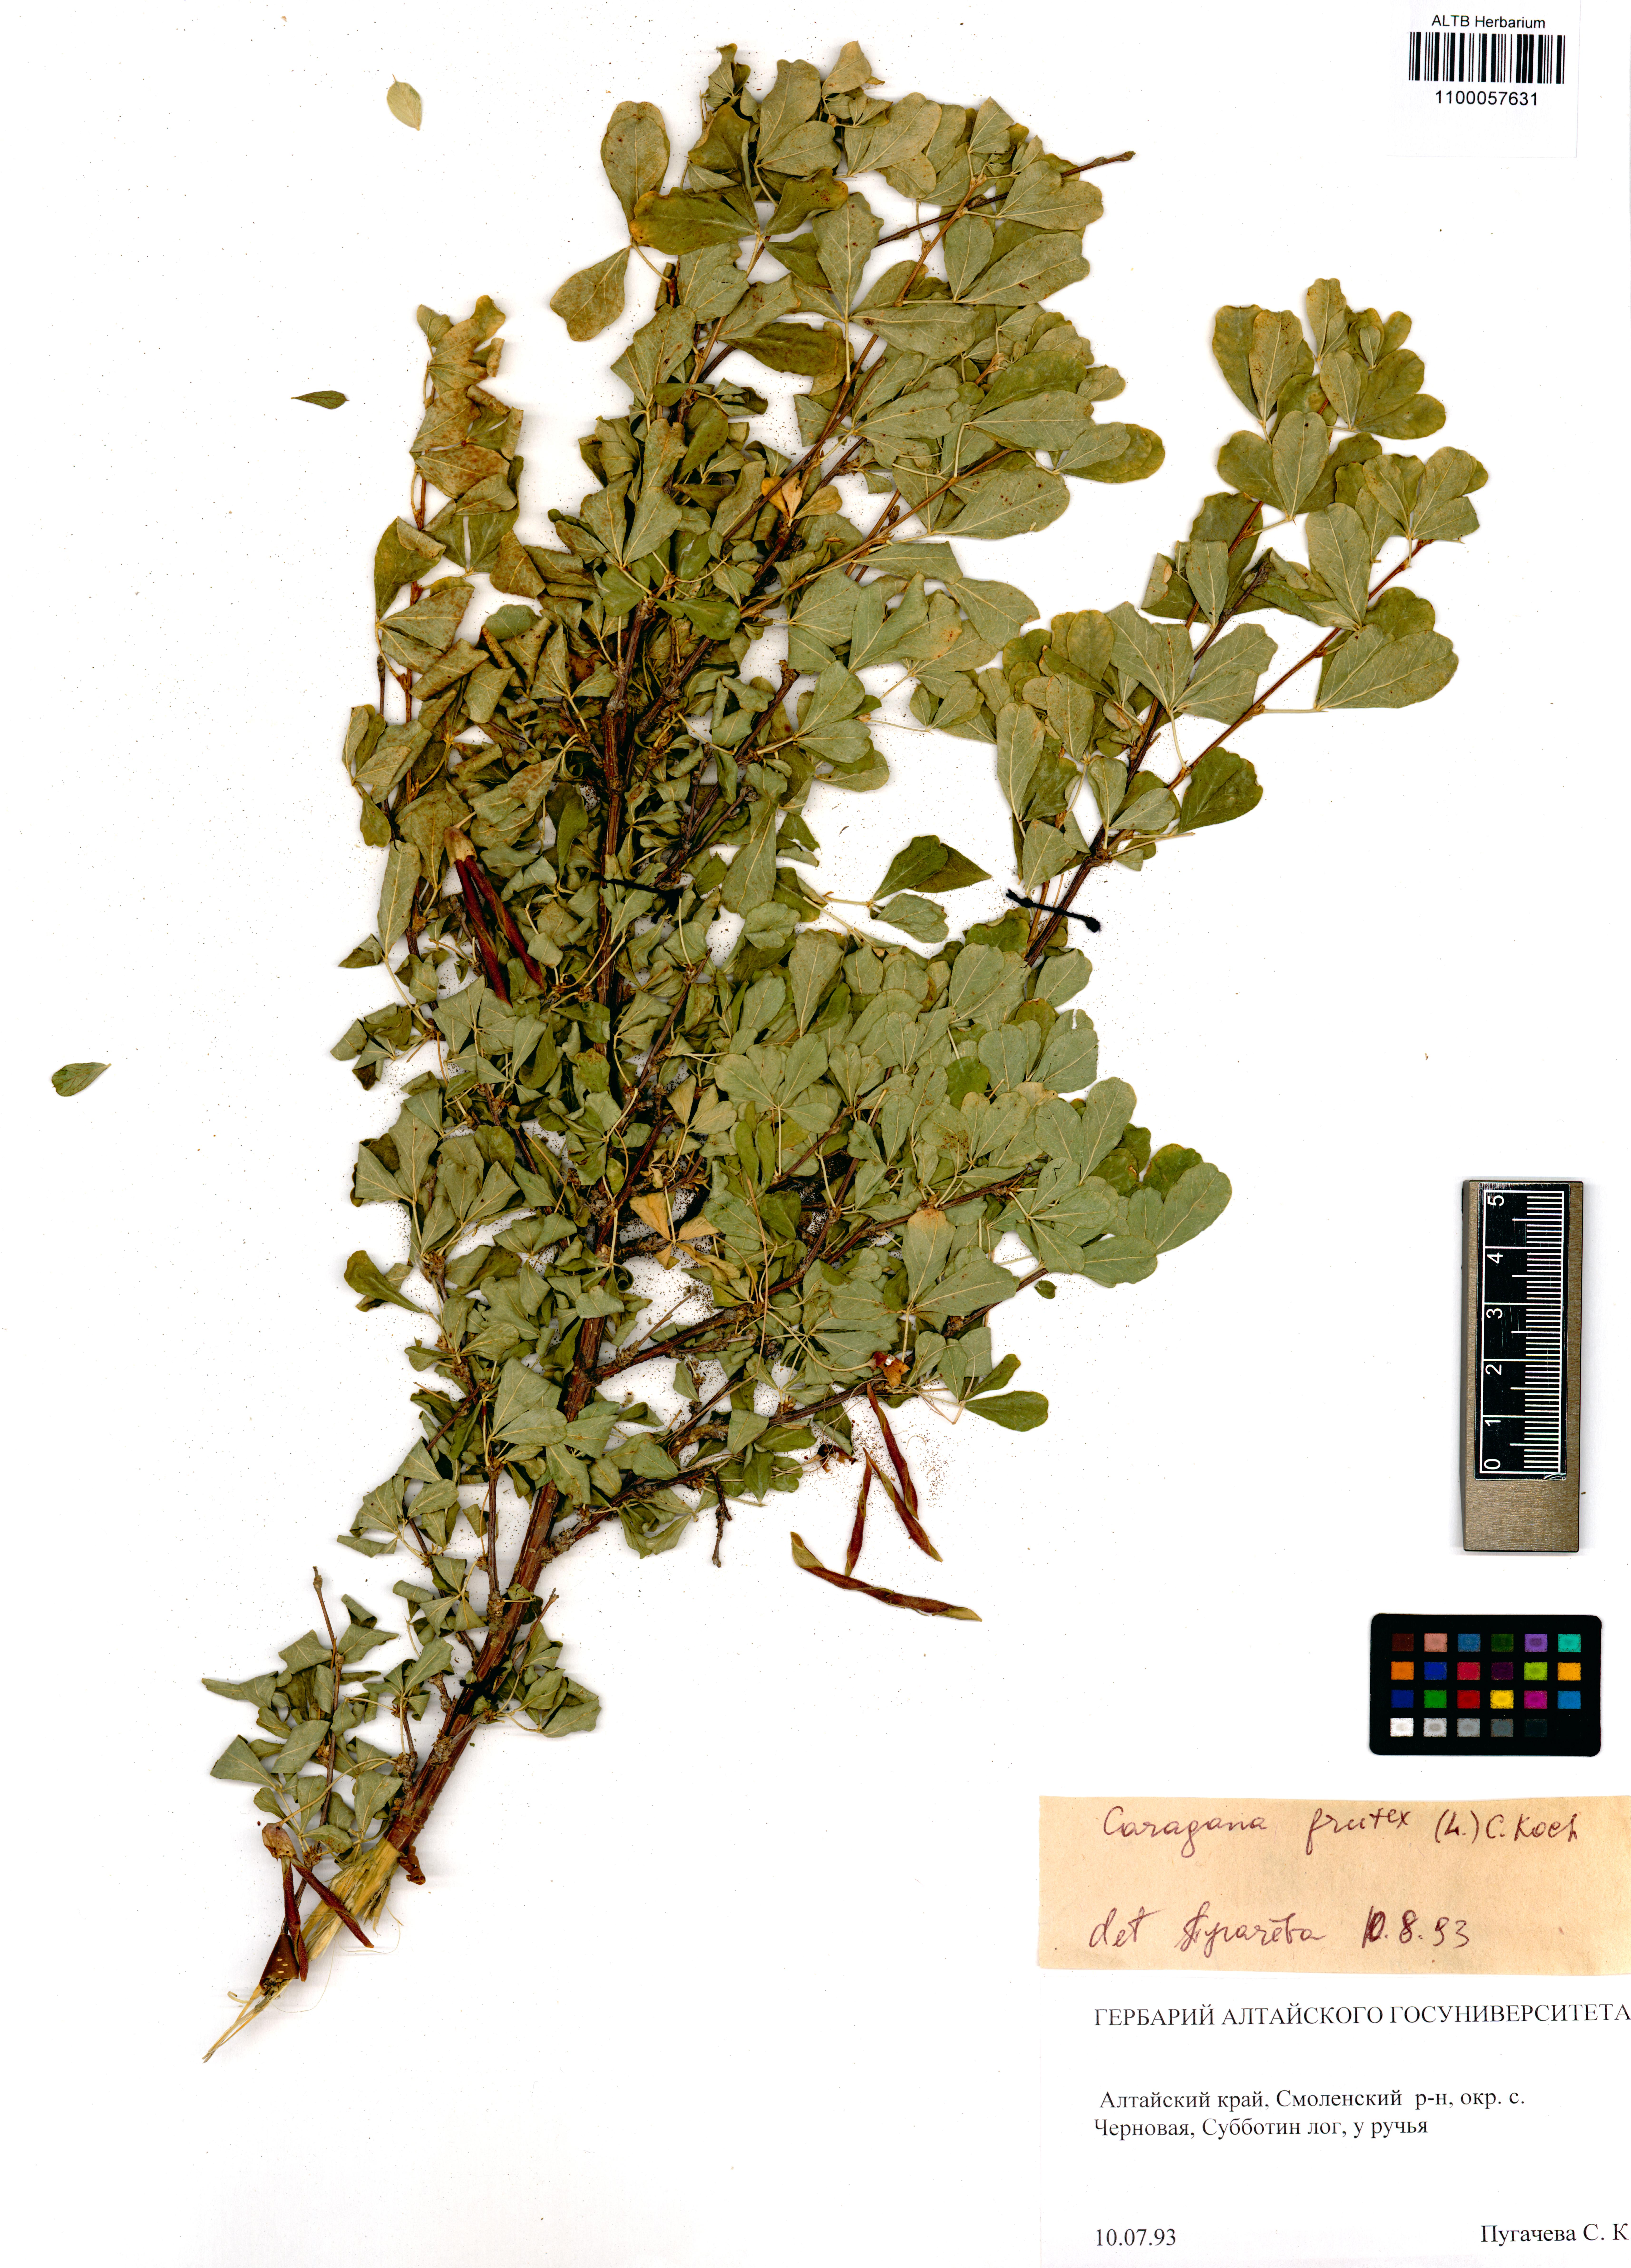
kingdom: Plantae
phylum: Tracheophyta
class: Magnoliopsida
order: Fabales
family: Fabaceae
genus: Caragana
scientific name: Caragana frutex
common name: Russian peashrub
